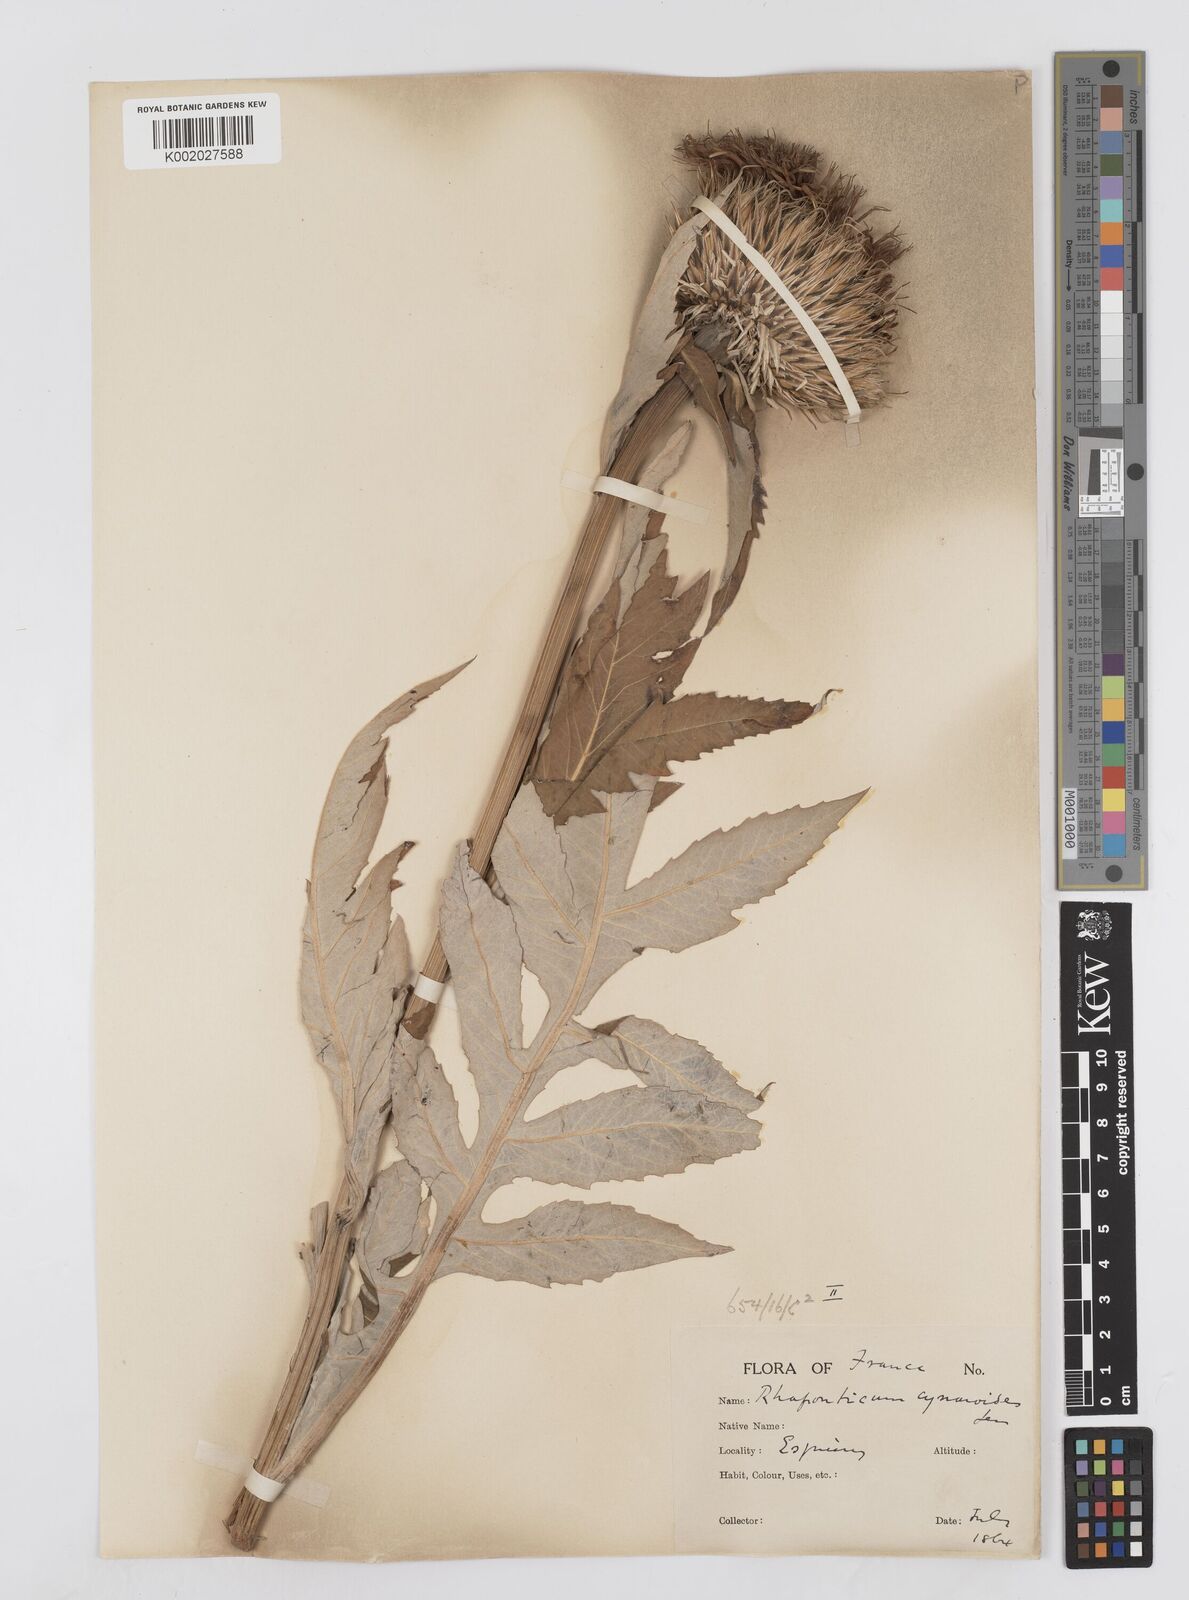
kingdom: Plantae
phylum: Tracheophyta
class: Magnoliopsida
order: Asterales
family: Asteraceae
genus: Leuzea
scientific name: Leuzea centauroides
